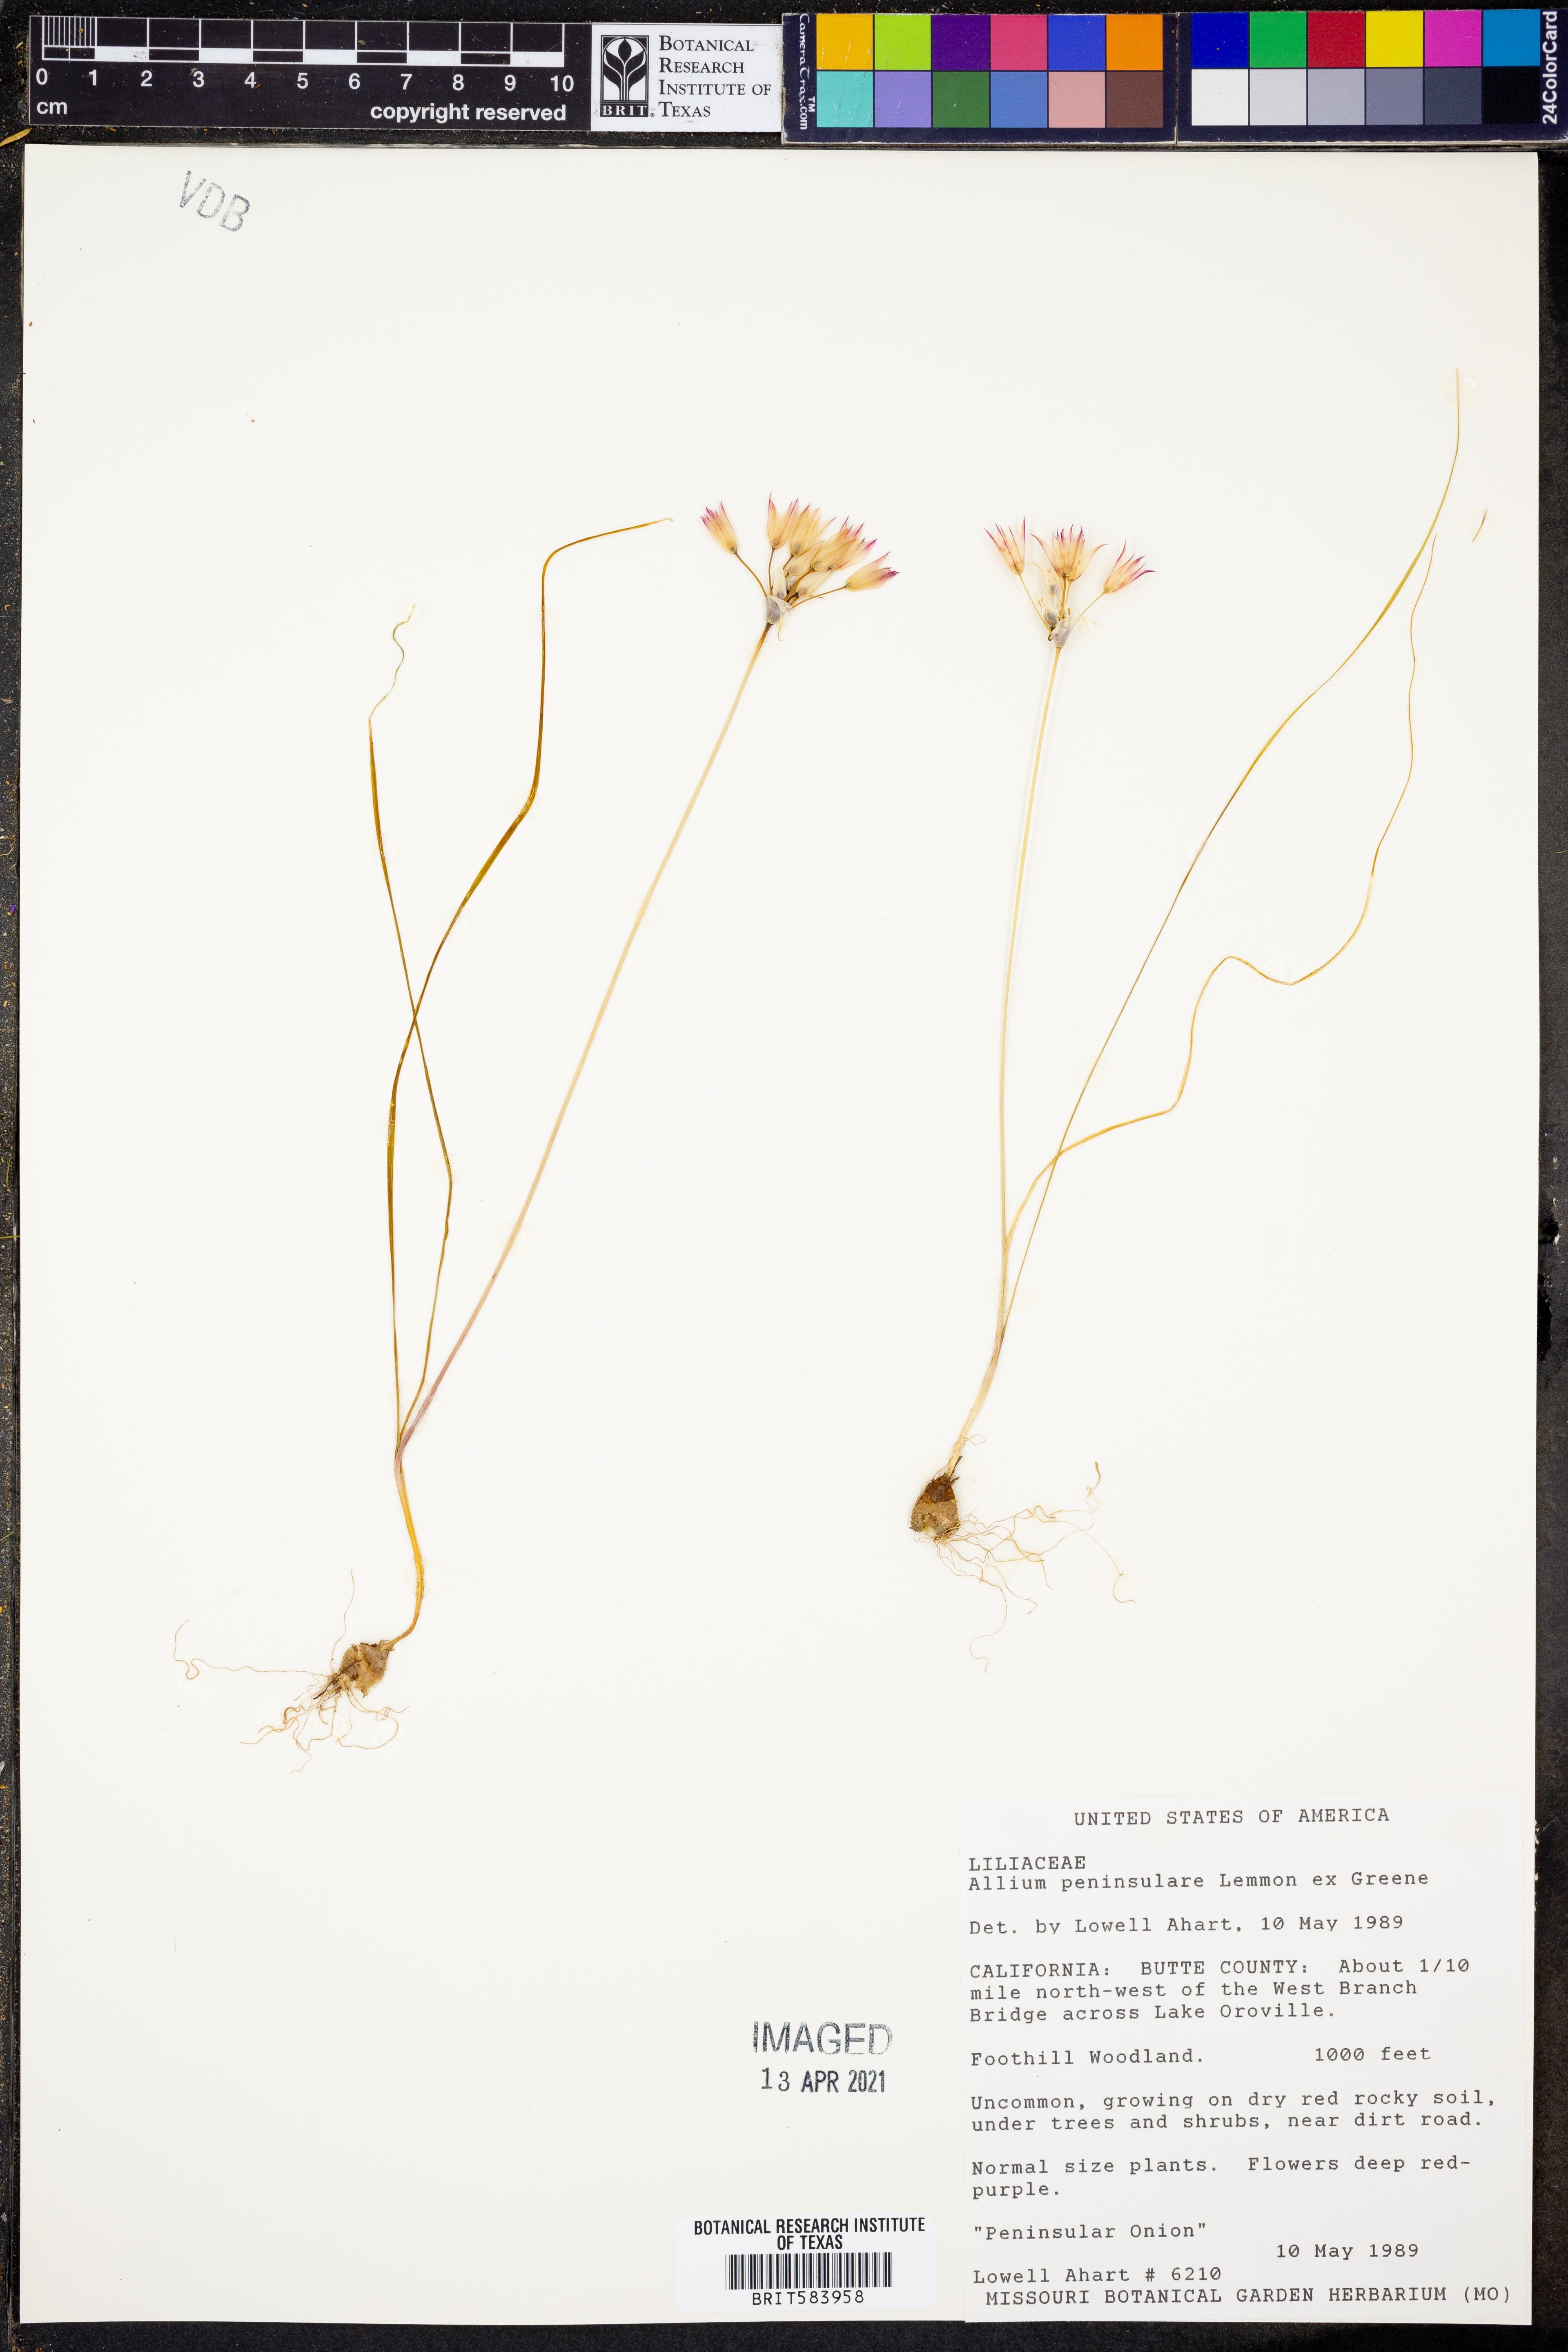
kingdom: Plantae
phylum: Tracheophyta
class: Liliopsida
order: Asparagales
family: Amaryllidaceae
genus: Allium
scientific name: Allium peninsulare
